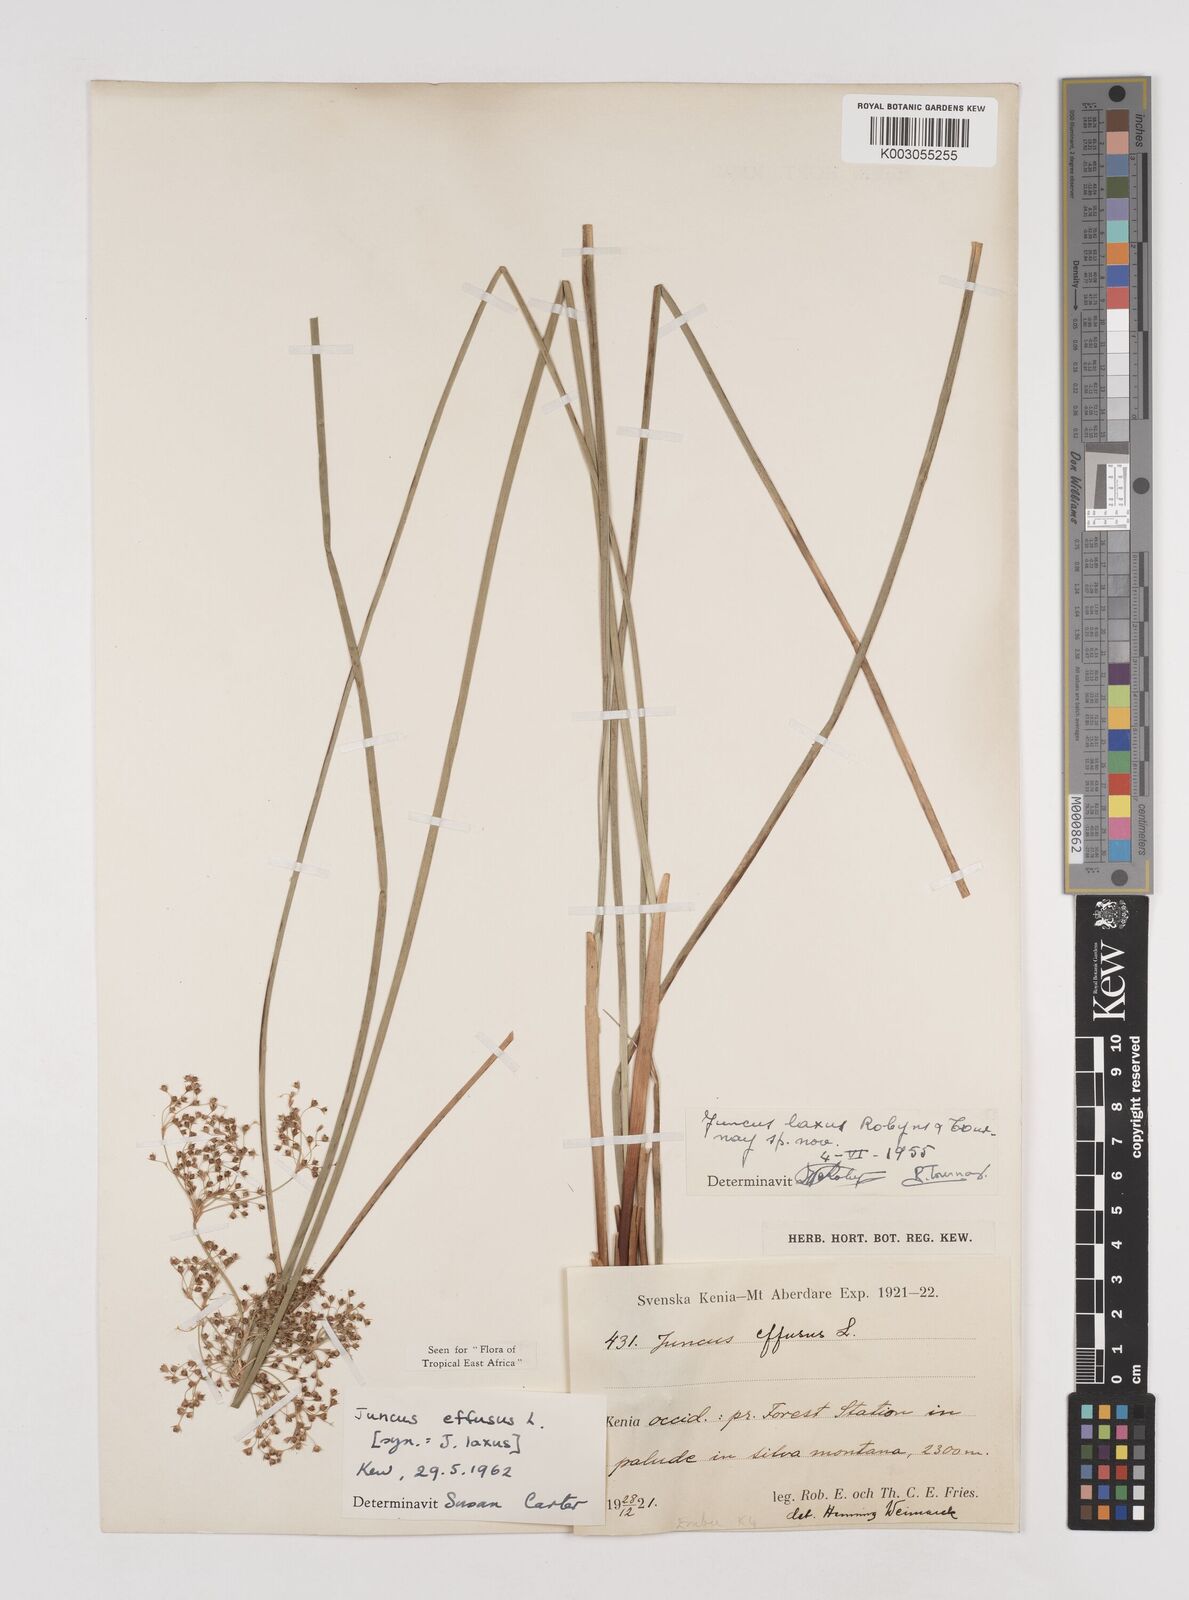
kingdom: Plantae
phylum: Tracheophyta
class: Liliopsida
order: Poales
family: Juncaceae
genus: Juncus
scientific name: Juncus effusus
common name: Soft rush
